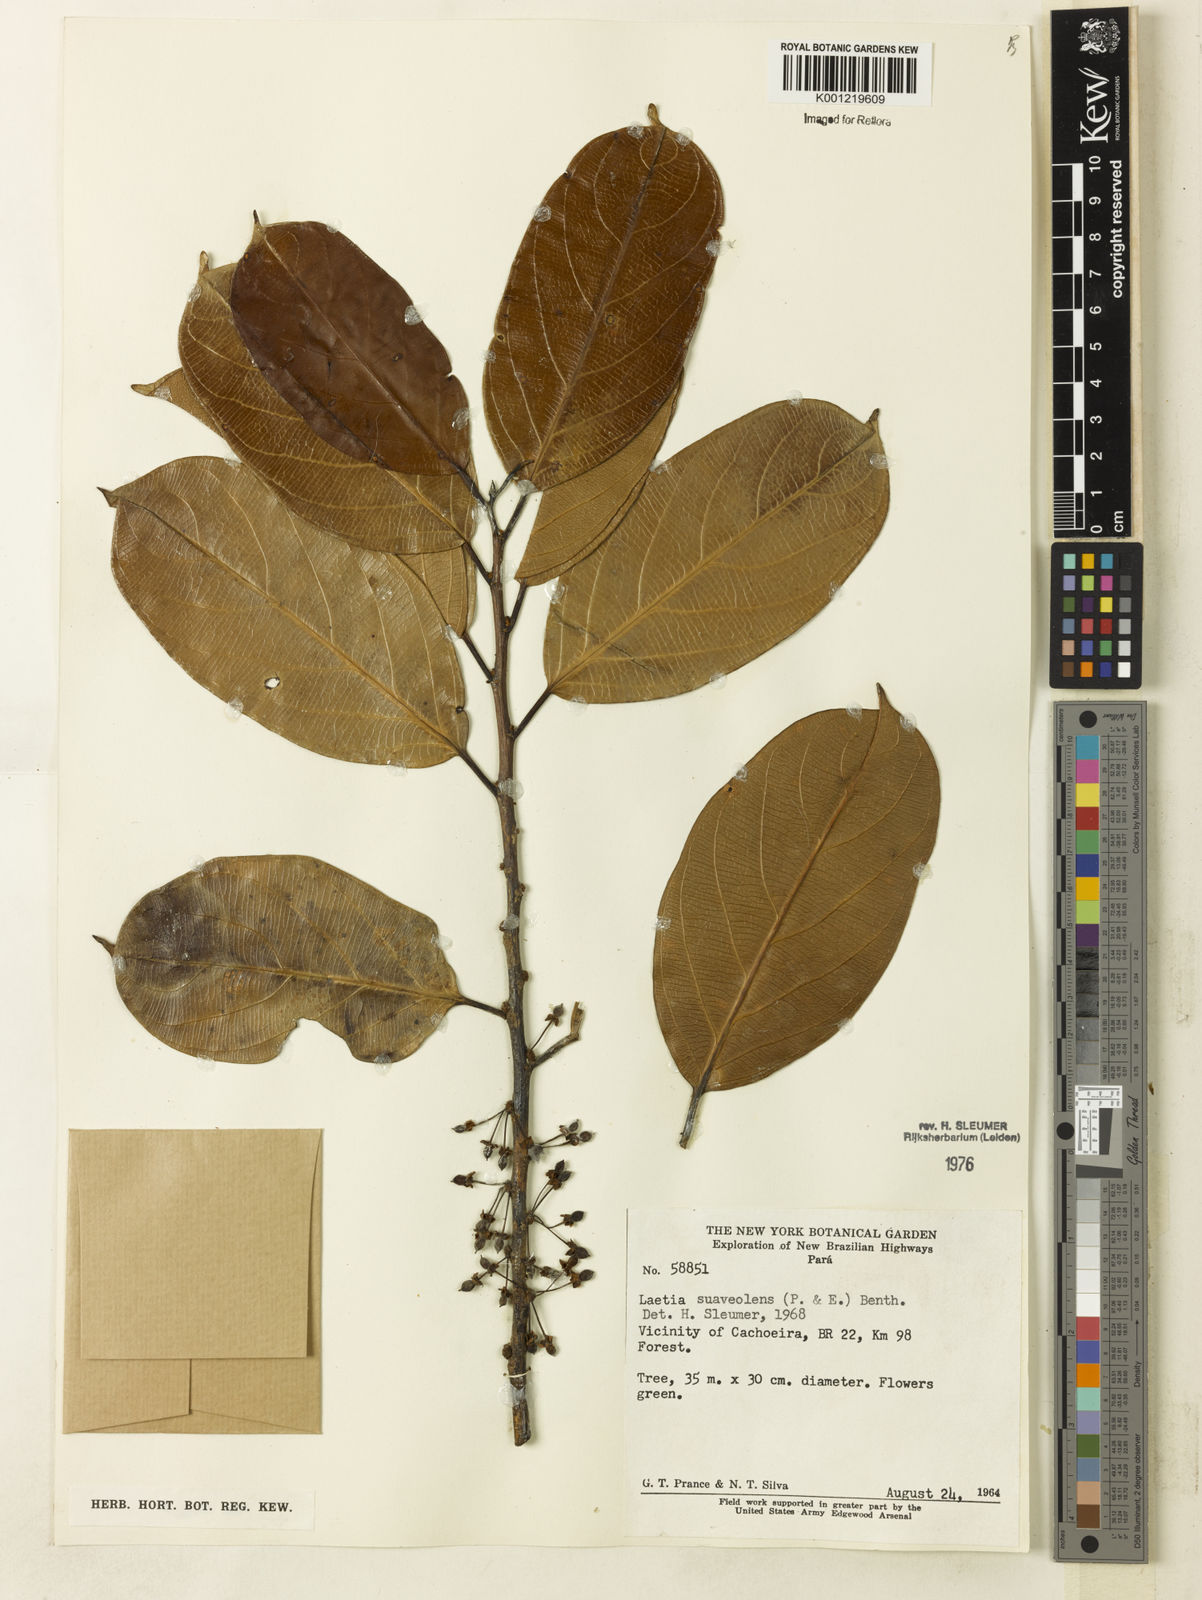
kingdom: Plantae
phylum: Tracheophyta
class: Magnoliopsida
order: Malpighiales
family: Salicaceae
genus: Casearia
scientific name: Casearia suaveolens
